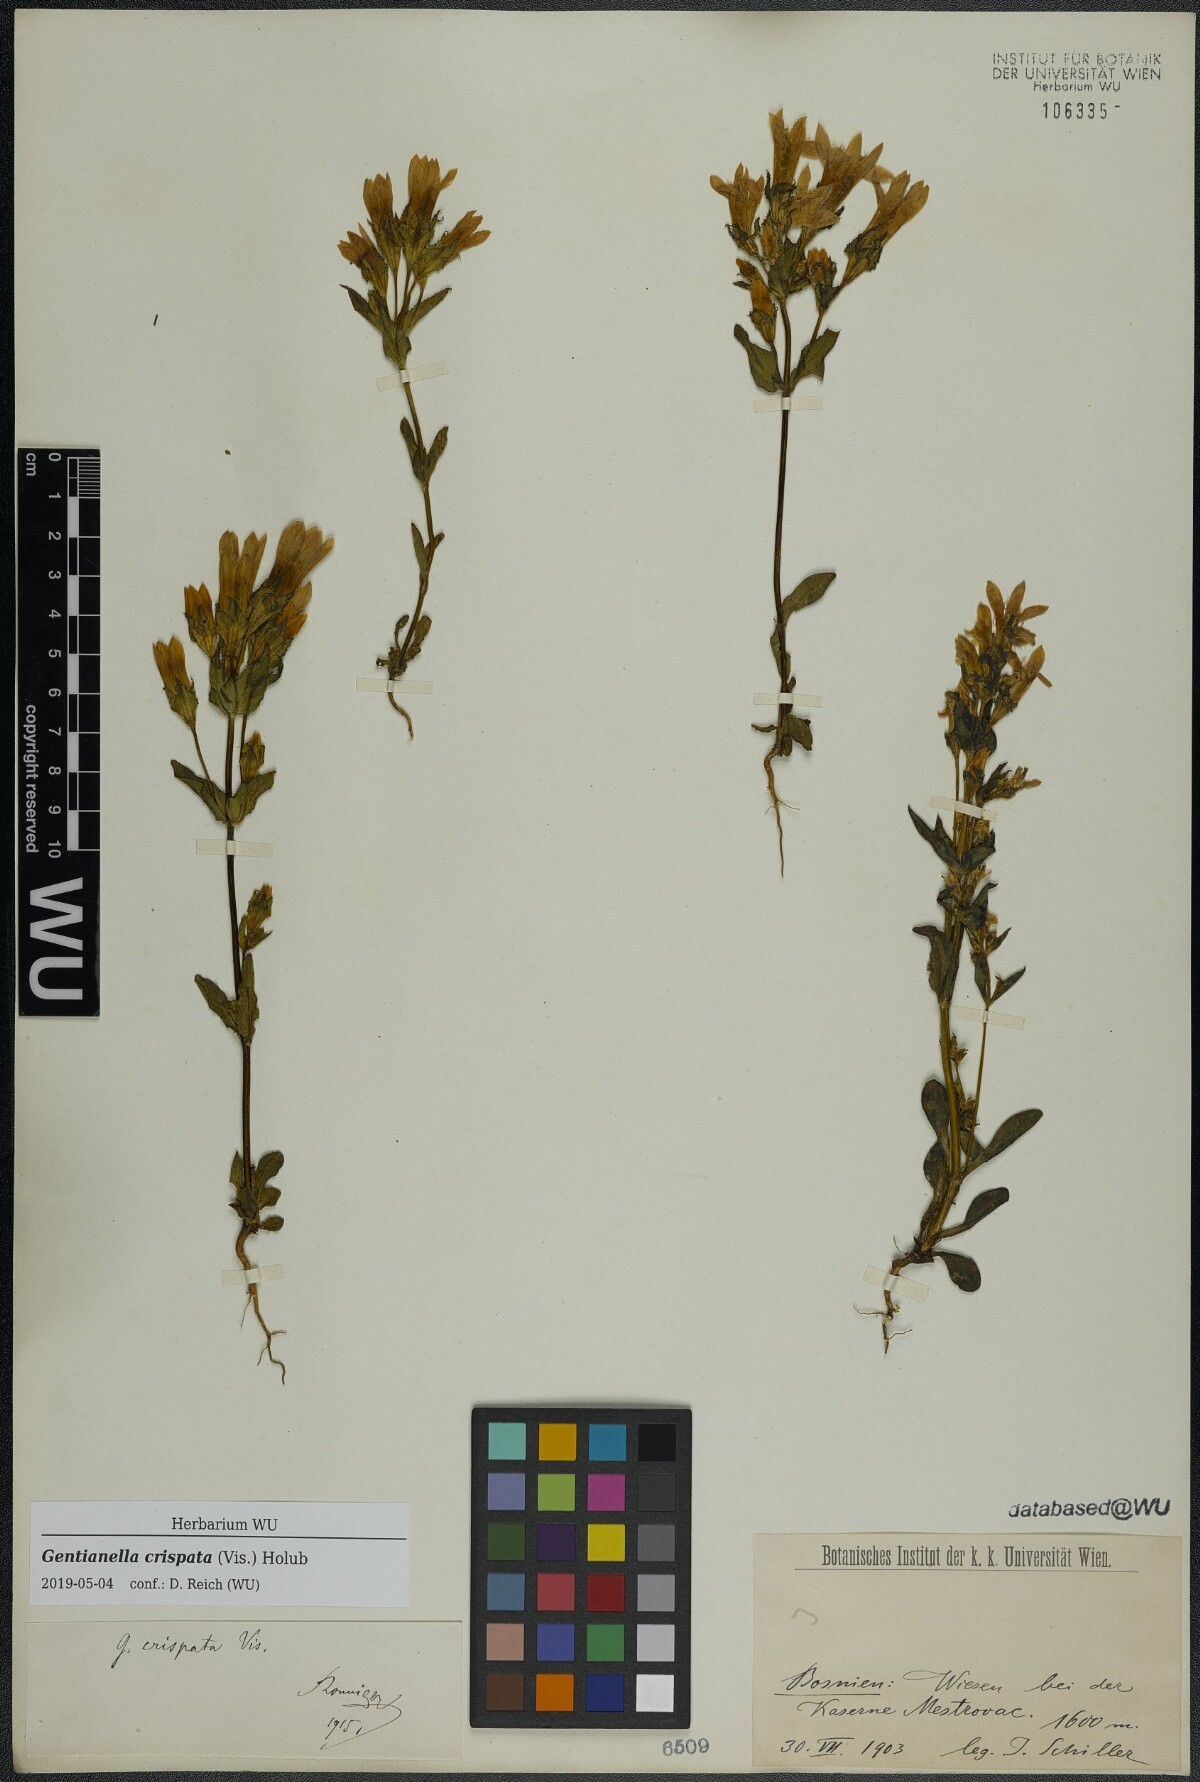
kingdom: Plantae
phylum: Tracheophyta
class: Magnoliopsida
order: Gentianales
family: Gentianaceae
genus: Gentianella
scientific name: Gentianella crispata
